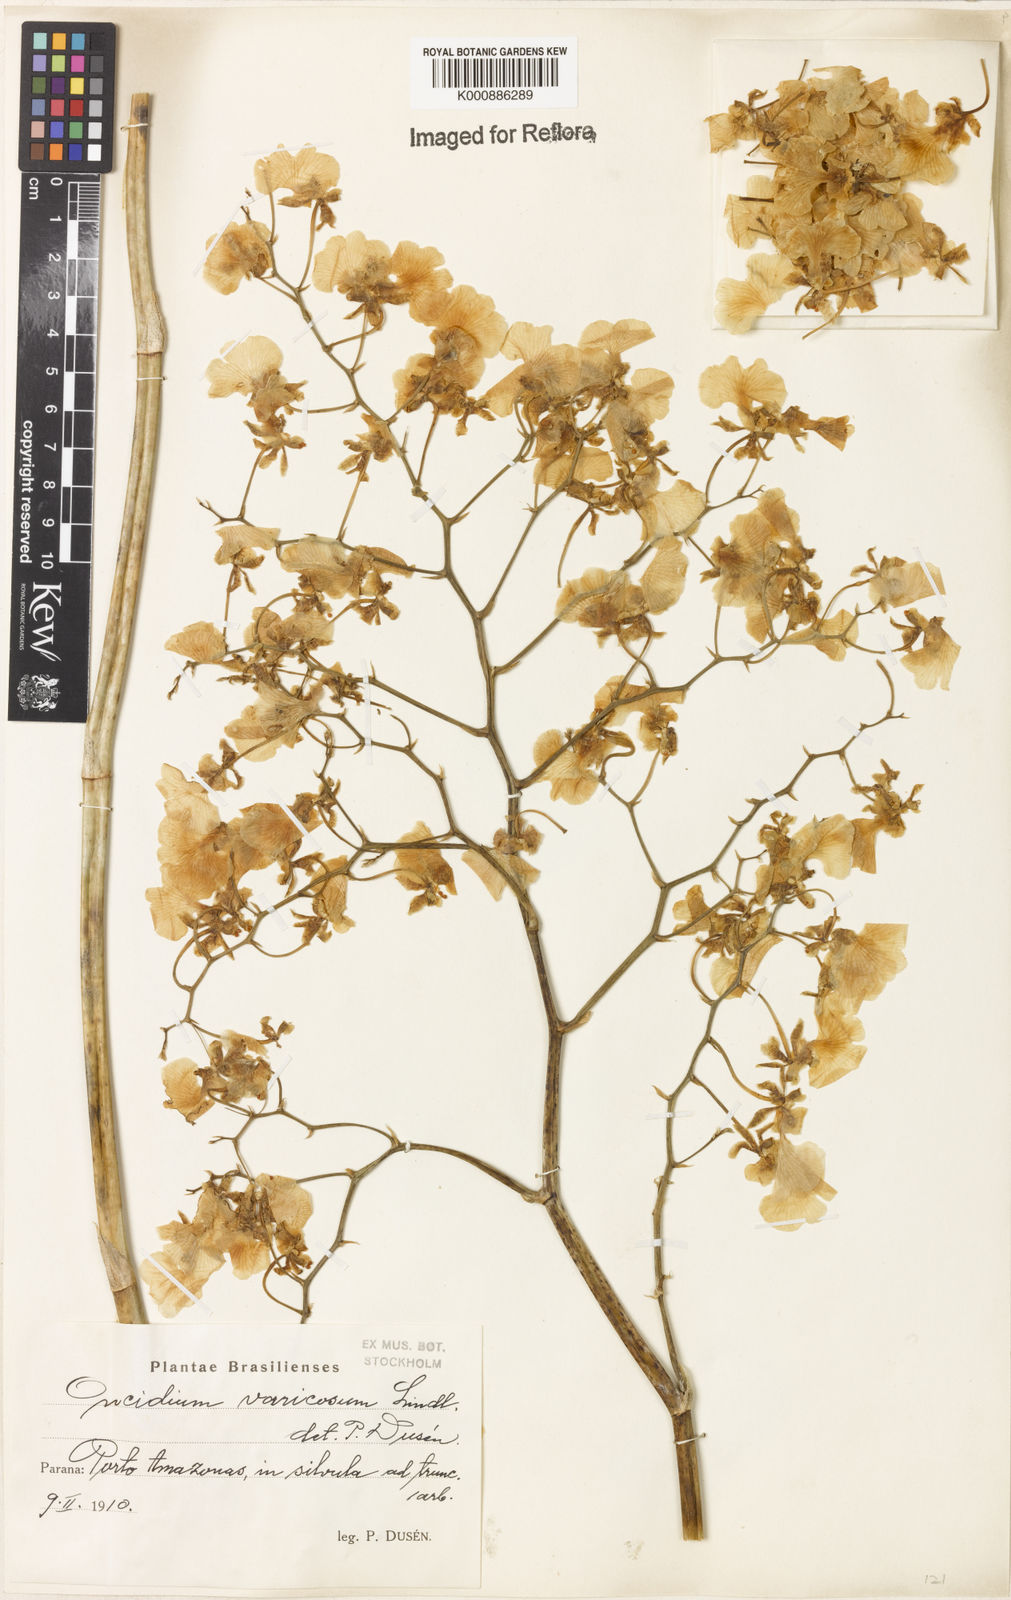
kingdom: Plantae
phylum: Tracheophyta
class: Liliopsida
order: Asparagales
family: Orchidaceae
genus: Gomesa
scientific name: Gomesa varicosa
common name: Dancing ladies
